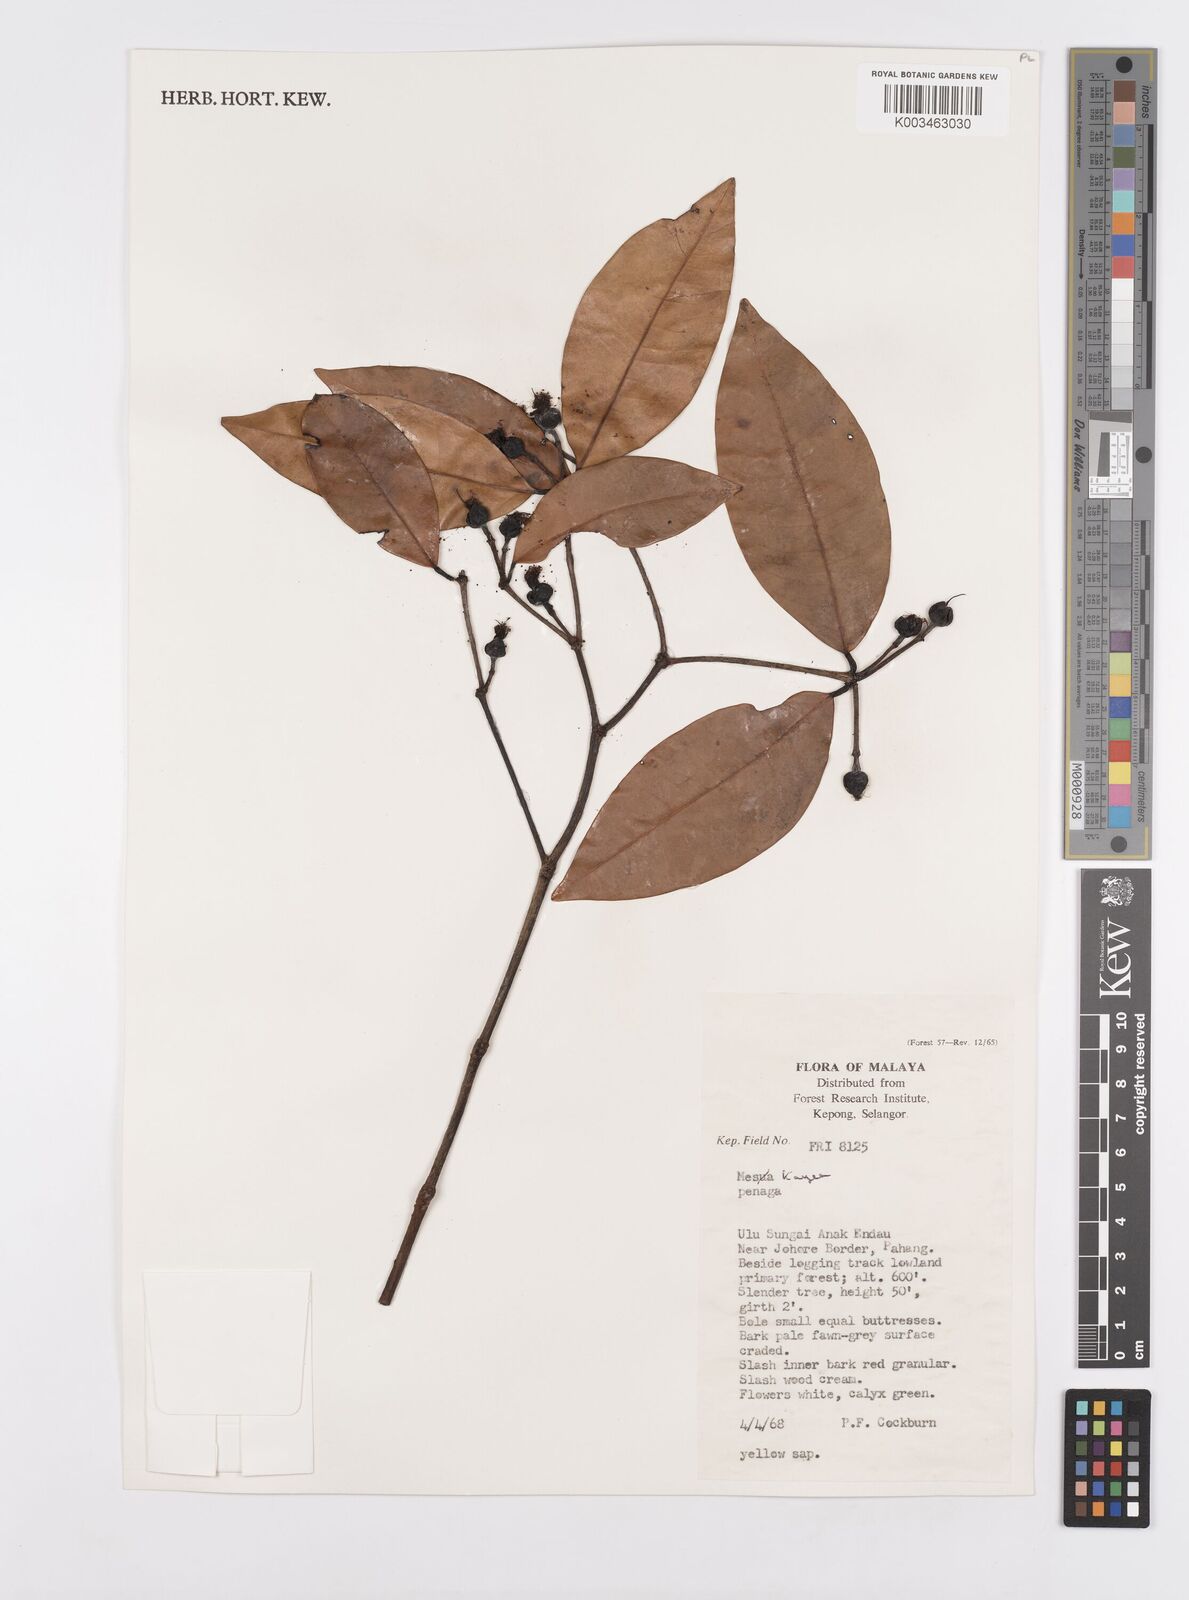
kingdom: Plantae
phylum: Tracheophyta
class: Magnoliopsida
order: Malpighiales
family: Calophyllaceae
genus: Kayea
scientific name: Kayea
